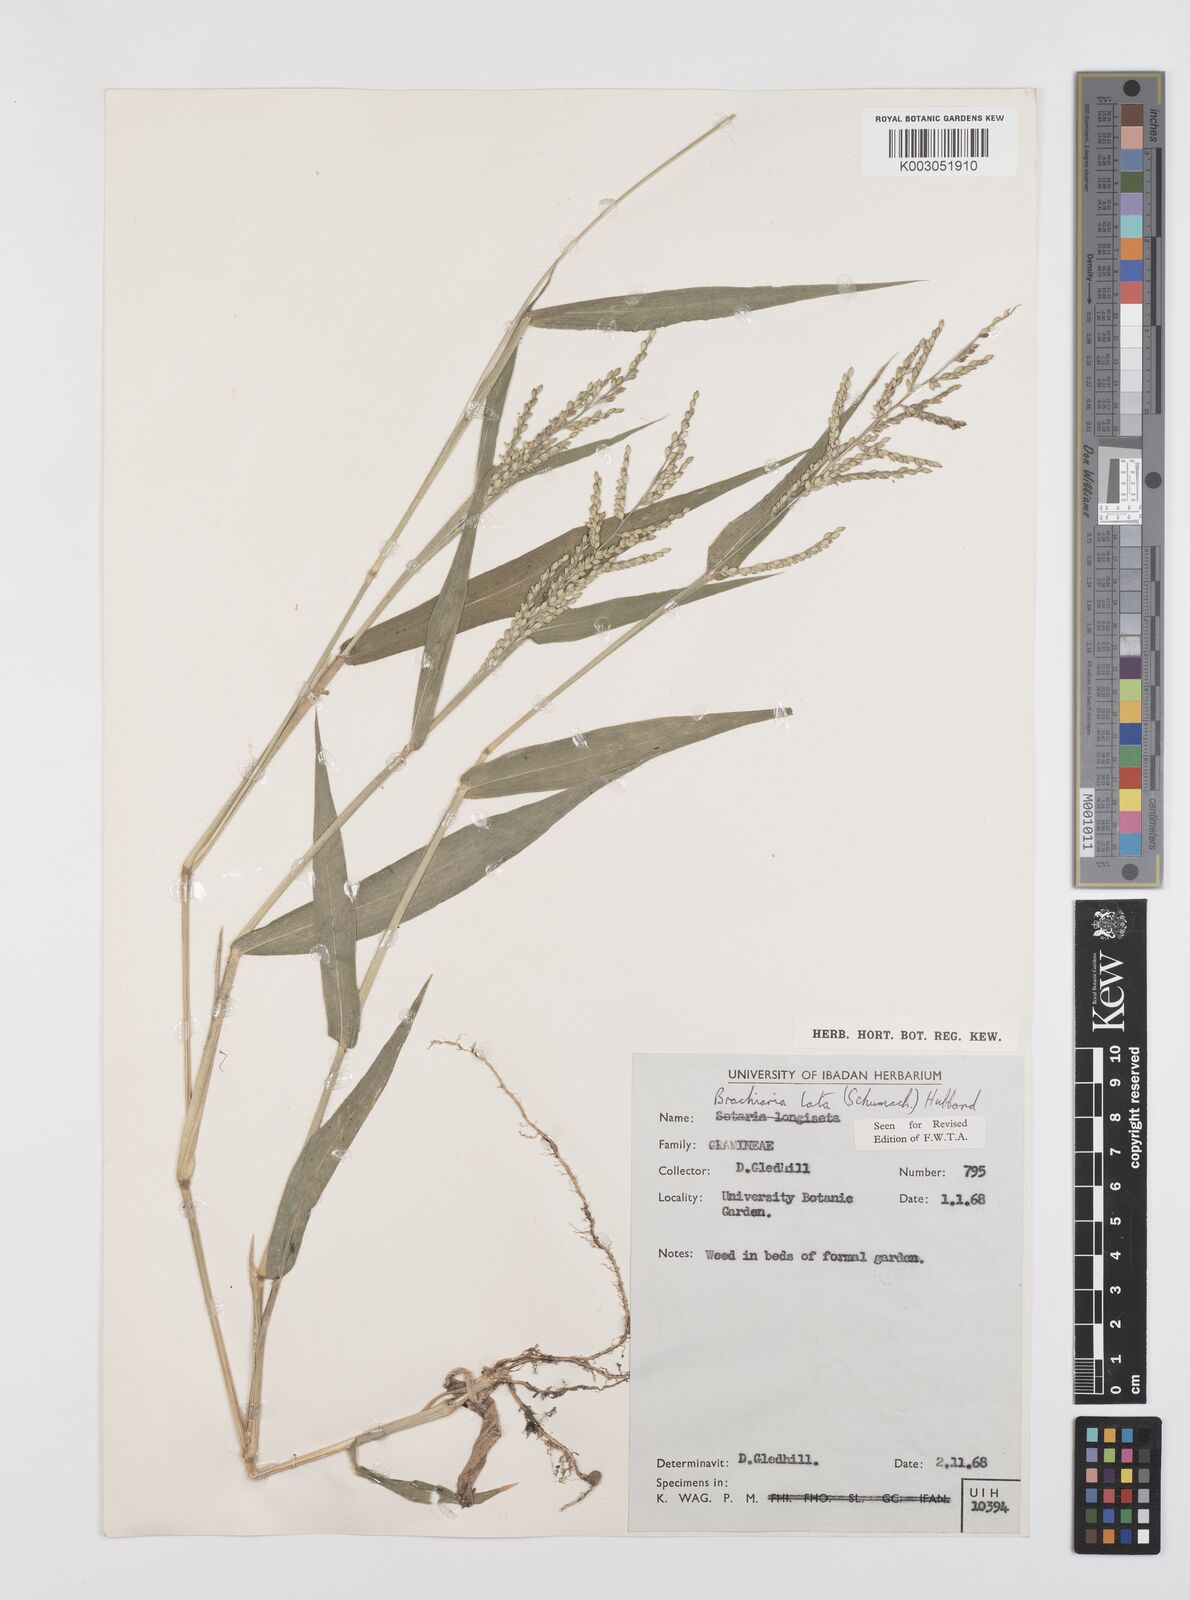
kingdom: Plantae
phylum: Tracheophyta
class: Liliopsida
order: Poales
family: Poaceae
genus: Urochloa
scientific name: Urochloa lata
